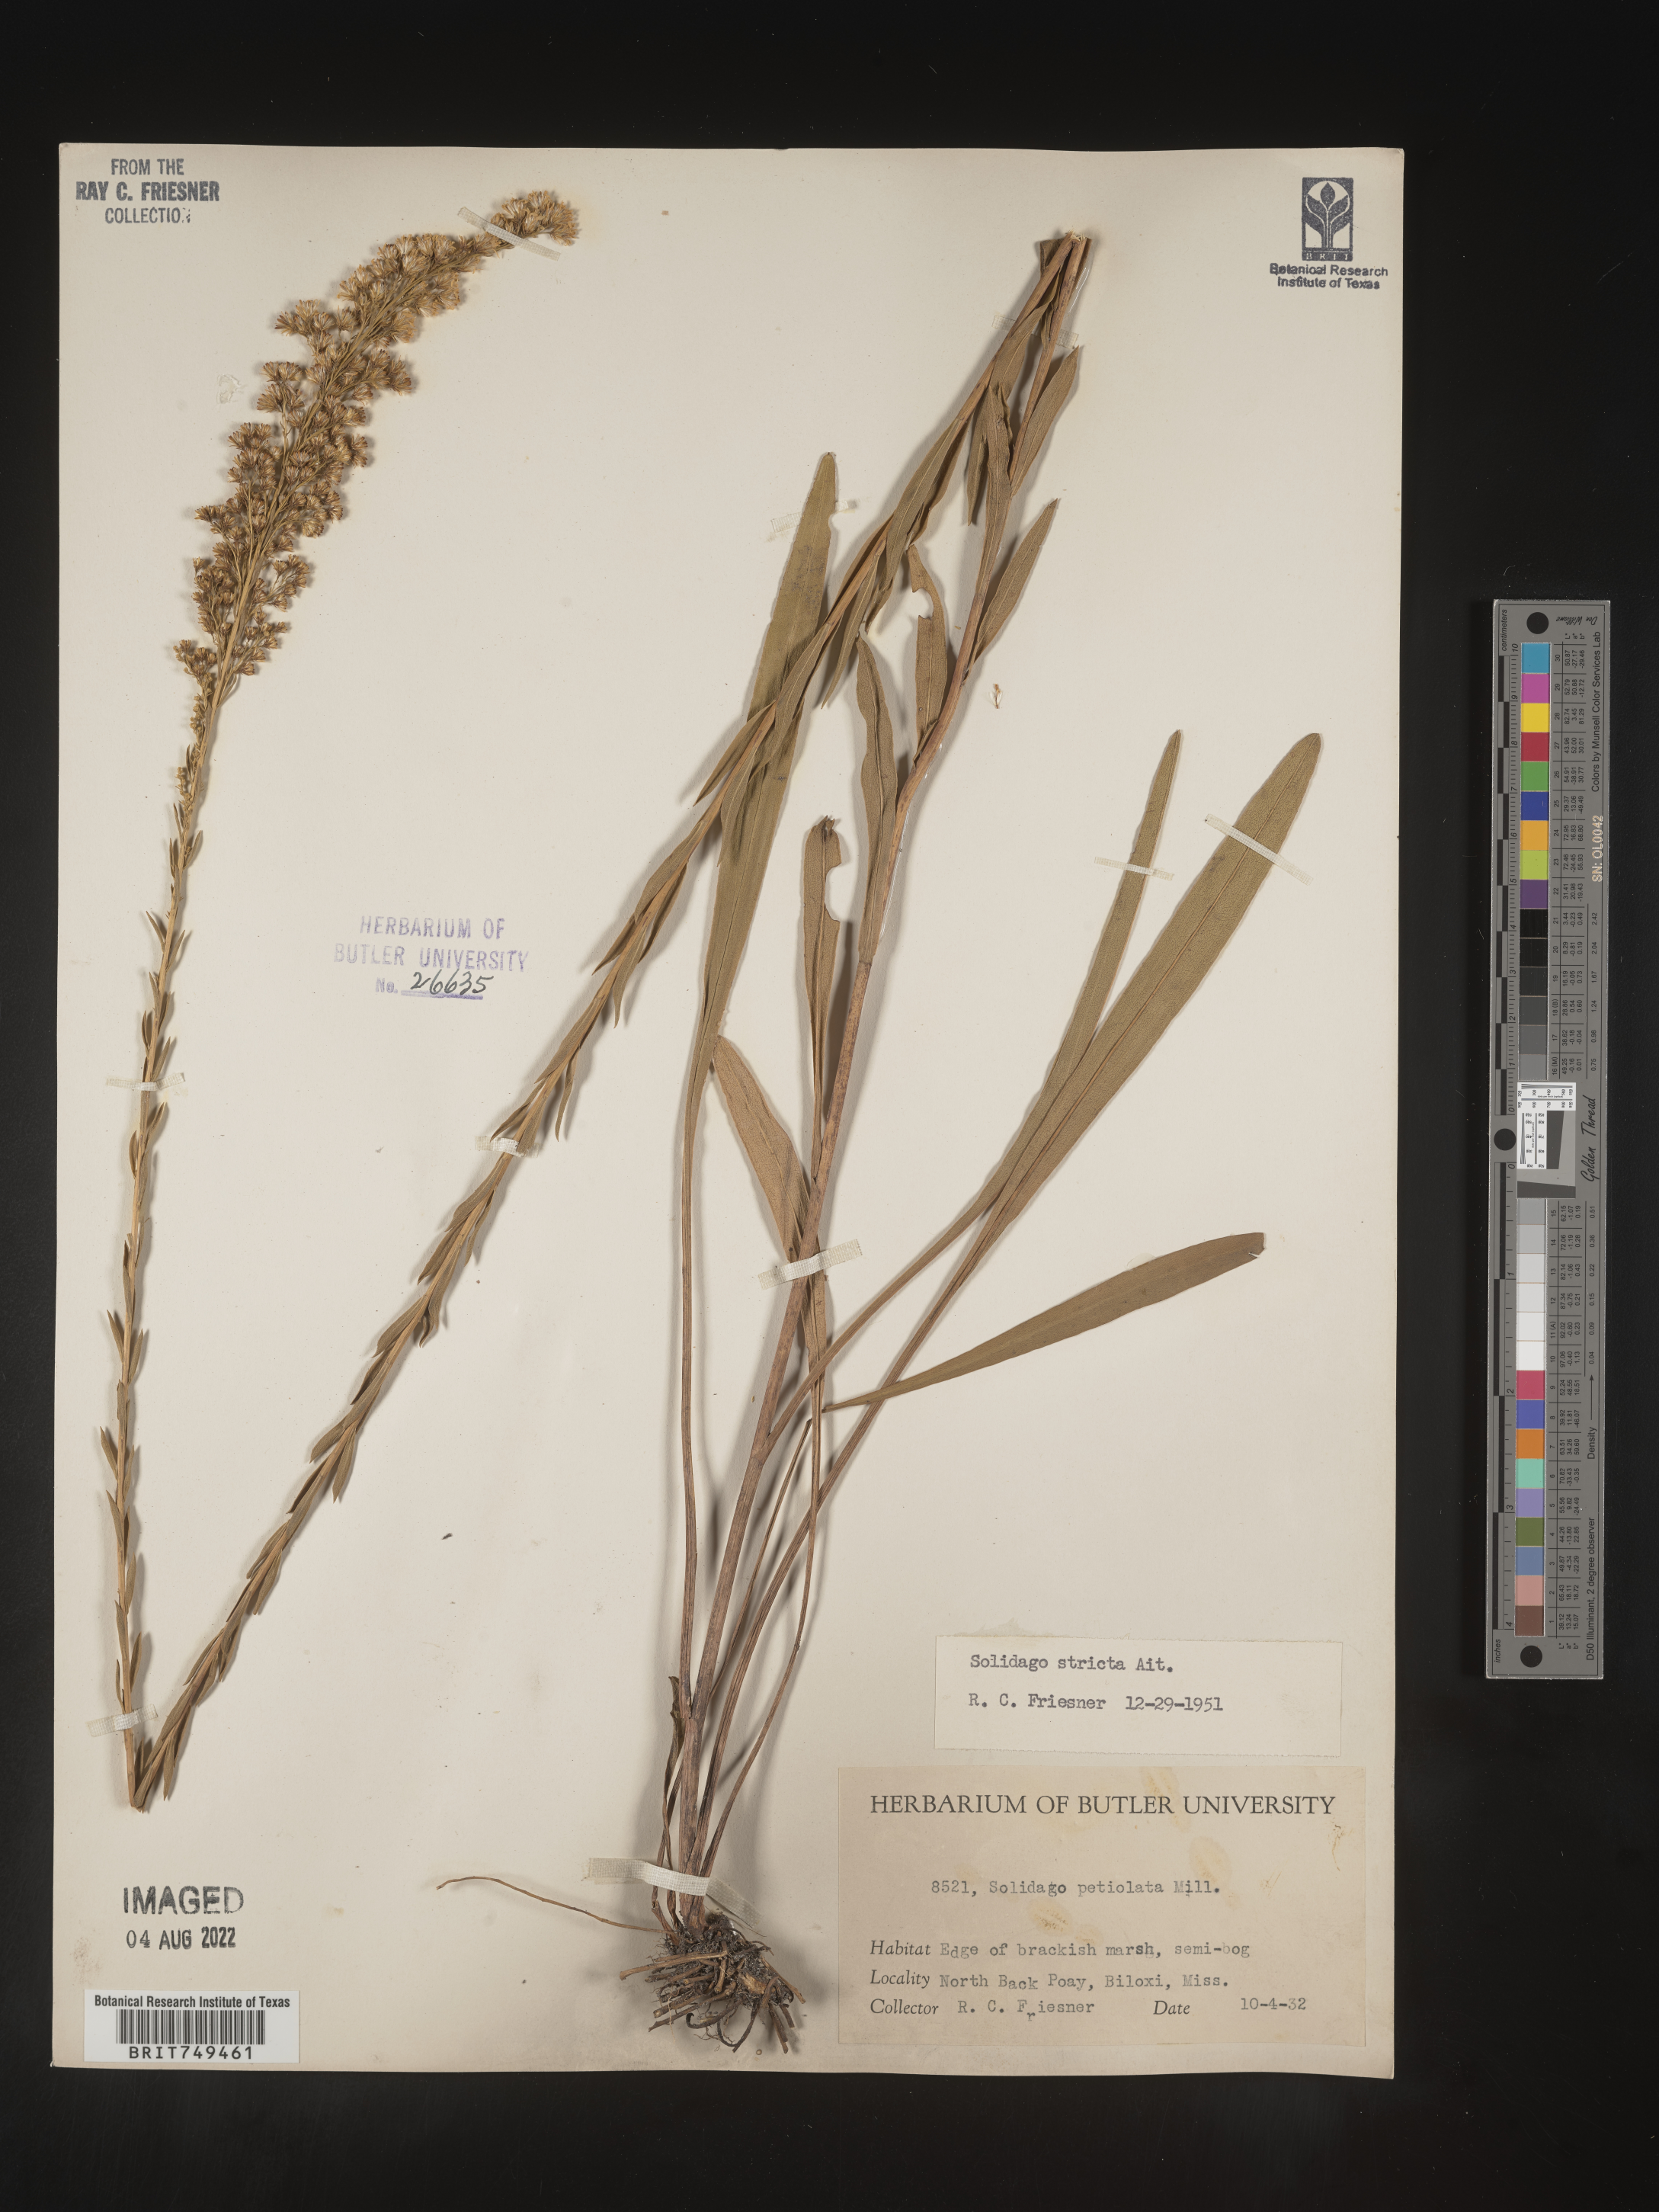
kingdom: Plantae
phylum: Tracheophyta
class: Magnoliopsida
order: Asterales
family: Asteraceae
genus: Solidago
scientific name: Solidago stricta
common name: Pine barren bog goldenrod
